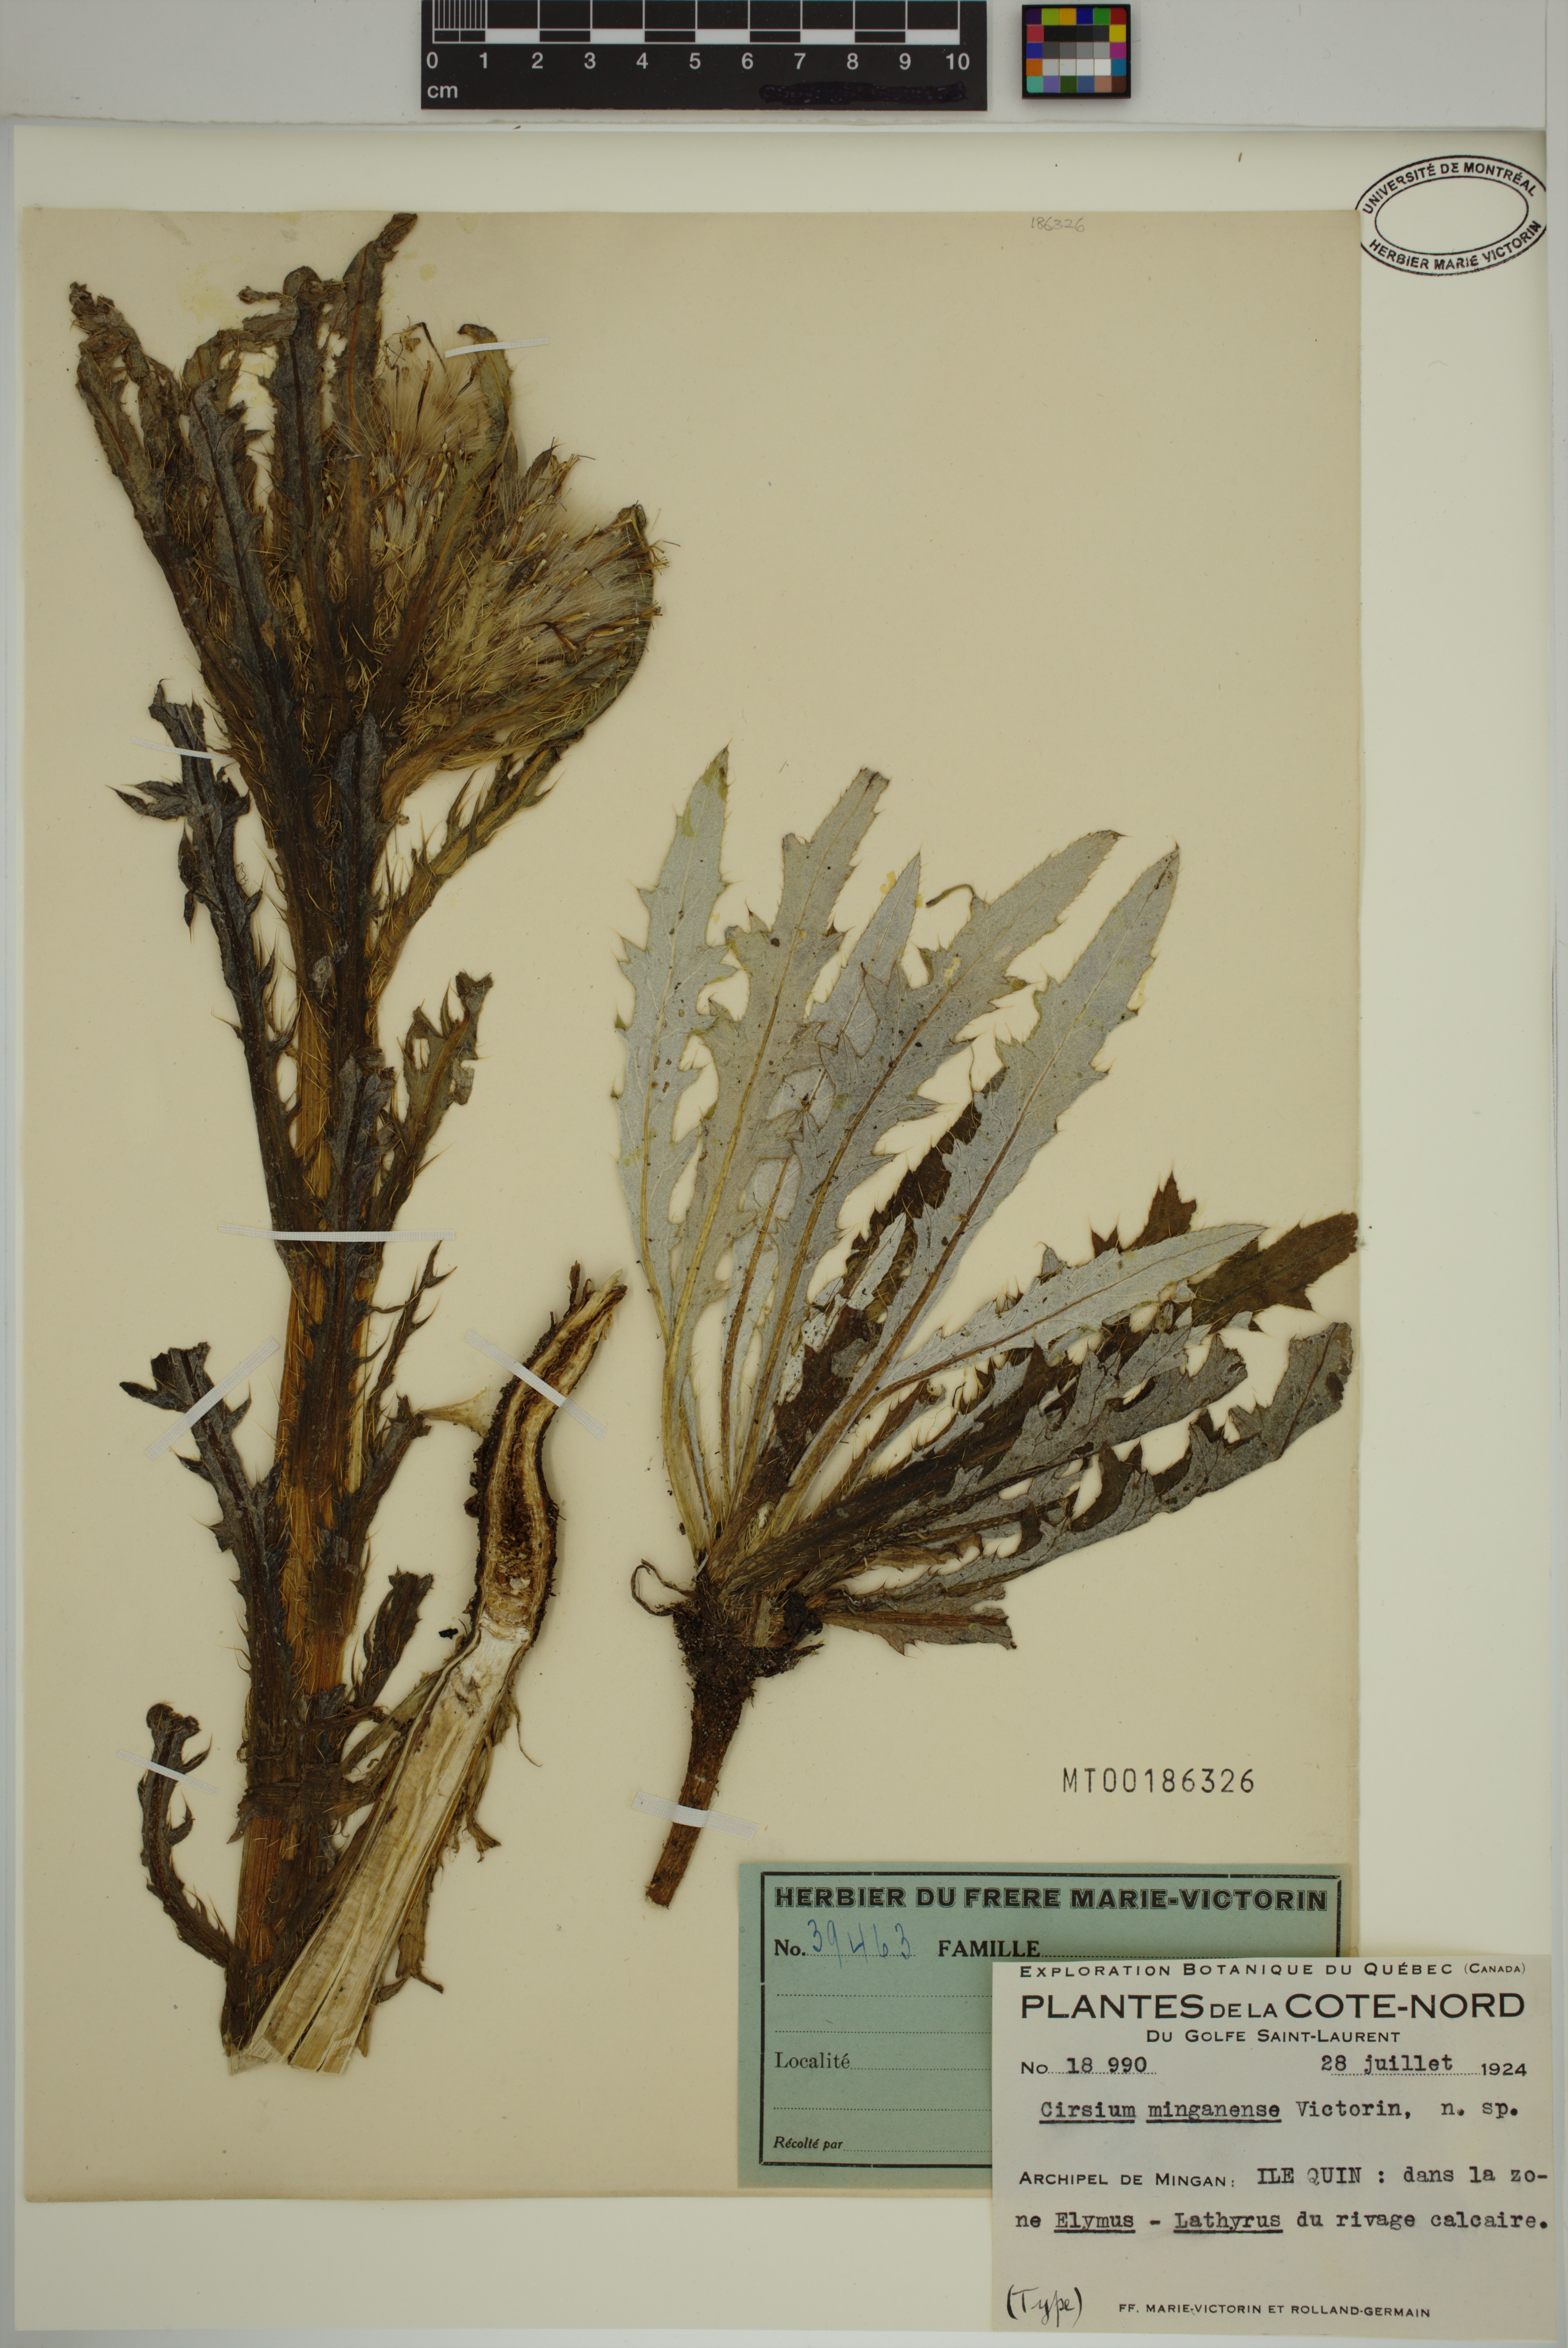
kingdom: Plantae
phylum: Tracheophyta
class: Magnoliopsida
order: Asterales
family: Asteraceae
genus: Cirsium
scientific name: Cirsium scariosum
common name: Meadow thistle
